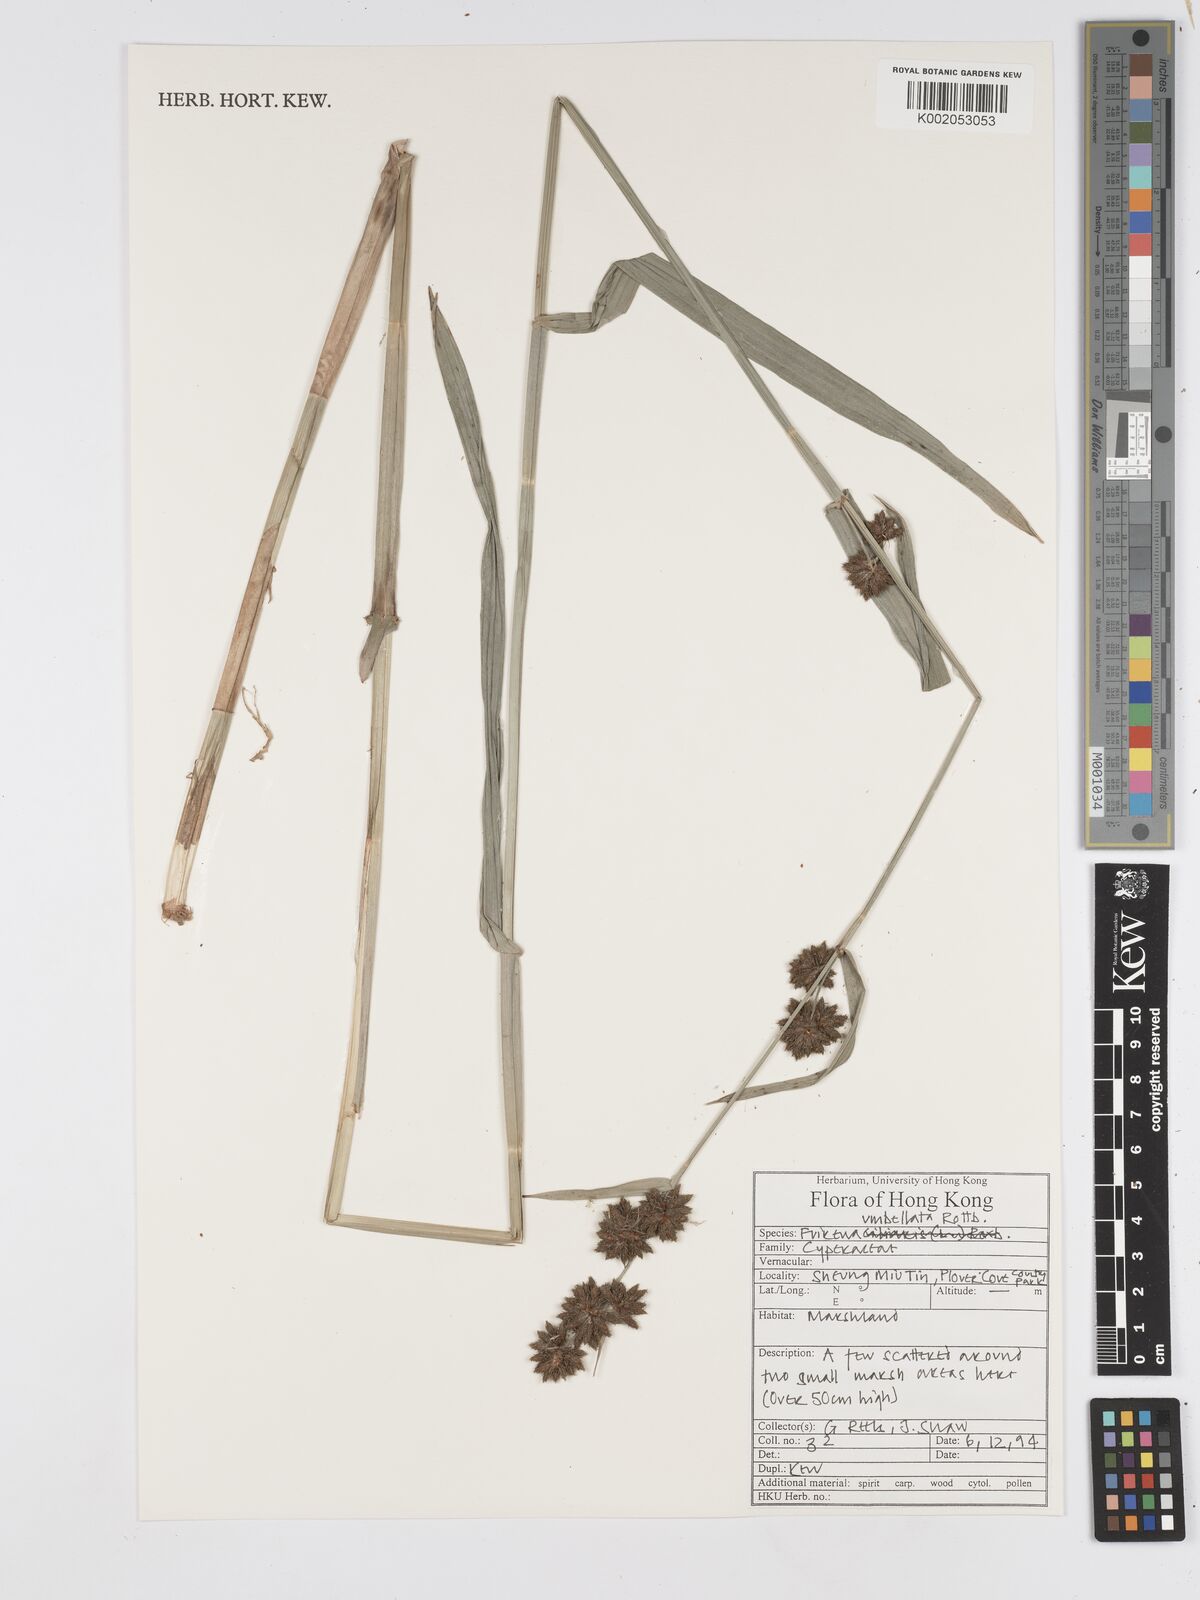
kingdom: Plantae
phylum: Tracheophyta
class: Liliopsida
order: Poales
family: Cyperaceae
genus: Fuirena
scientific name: Fuirena umbellata
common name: Yefen
